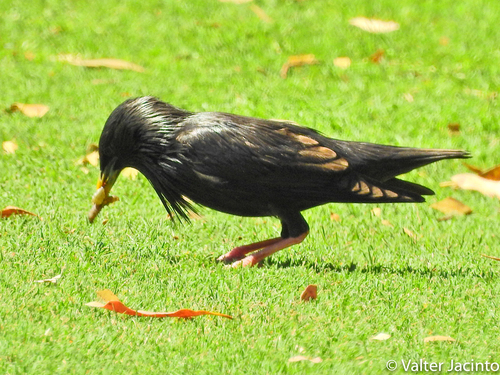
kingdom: Animalia
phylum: Chordata
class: Aves
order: Passeriformes
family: Sturnidae
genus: Sturnus
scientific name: Sturnus unicolor
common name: Spotless starling
